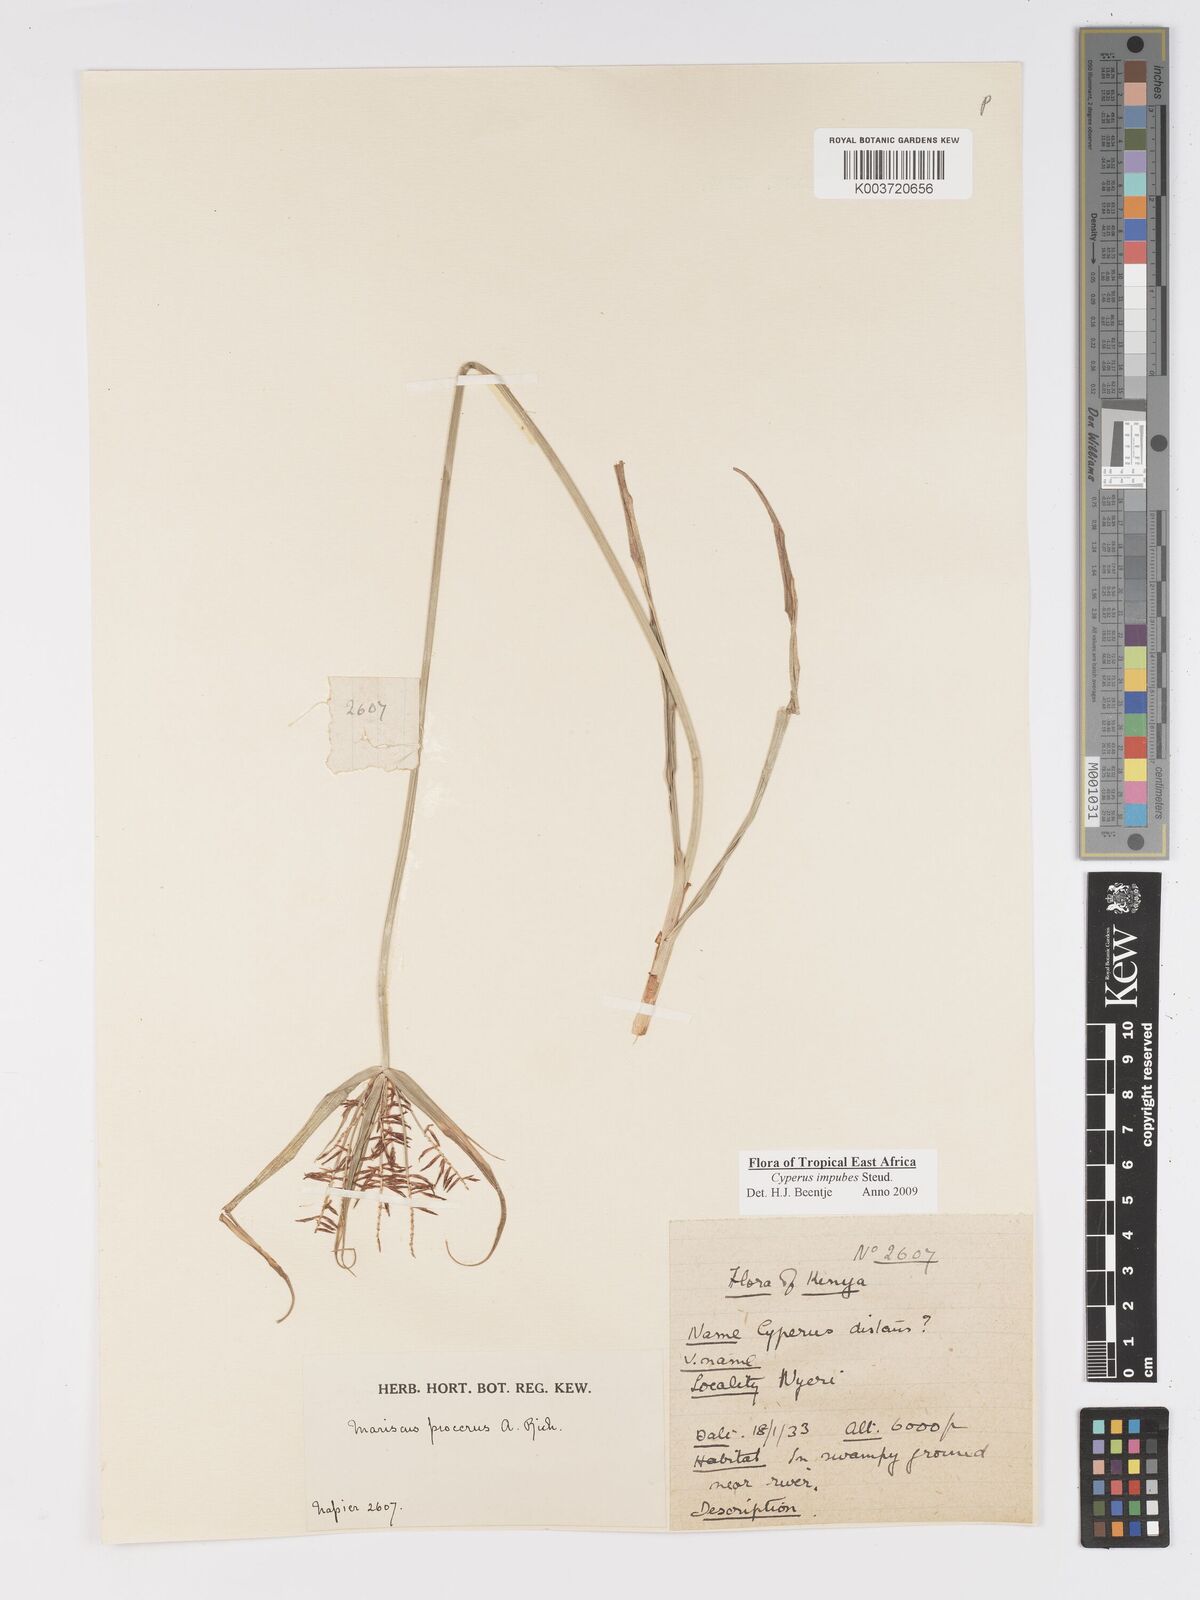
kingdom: Plantae
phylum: Tracheophyta
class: Liliopsida
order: Poales
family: Cyperaceae
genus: Cyperus
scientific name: Cyperus impubes
